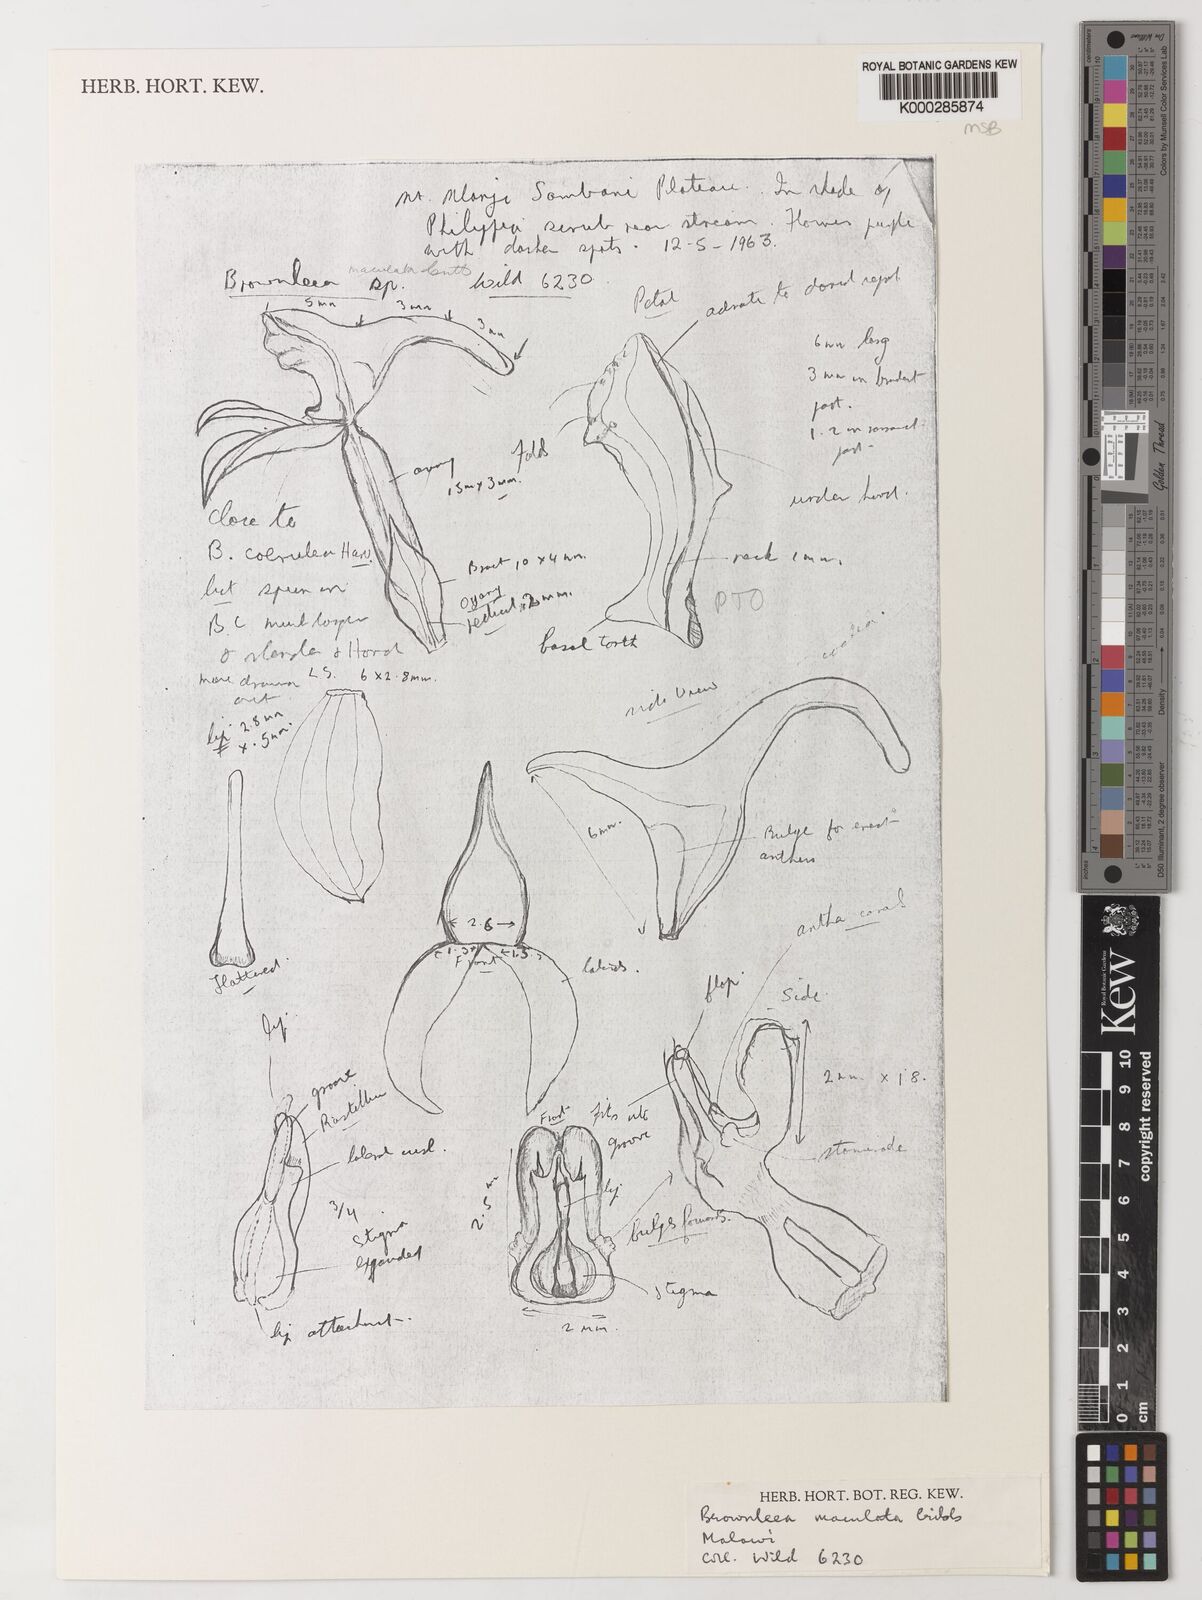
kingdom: Plantae
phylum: Tracheophyta
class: Liliopsida
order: Asparagales
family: Orchidaceae
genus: Brownleea
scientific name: Brownleea maculata
